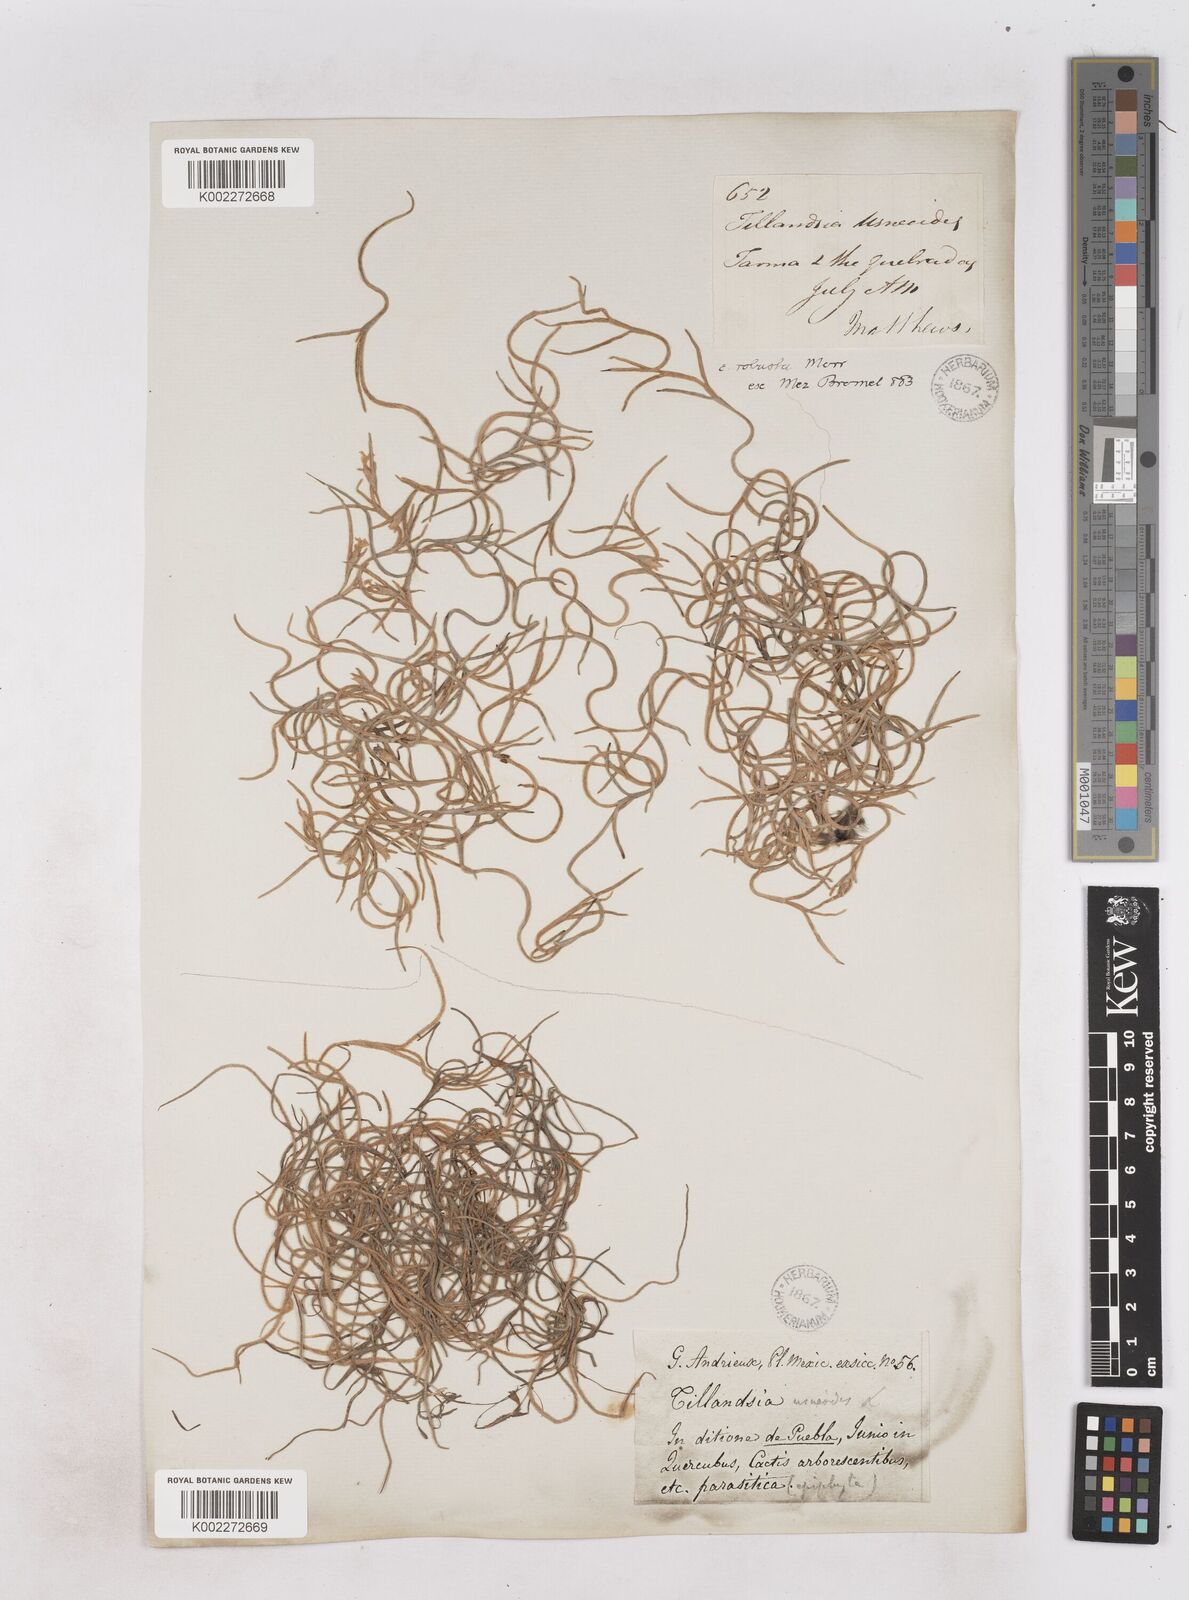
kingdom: Plantae
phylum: Tracheophyta
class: Liliopsida
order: Poales
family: Bromeliaceae
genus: Tillandsia
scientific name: Tillandsia usneoides
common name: Spanish moss
